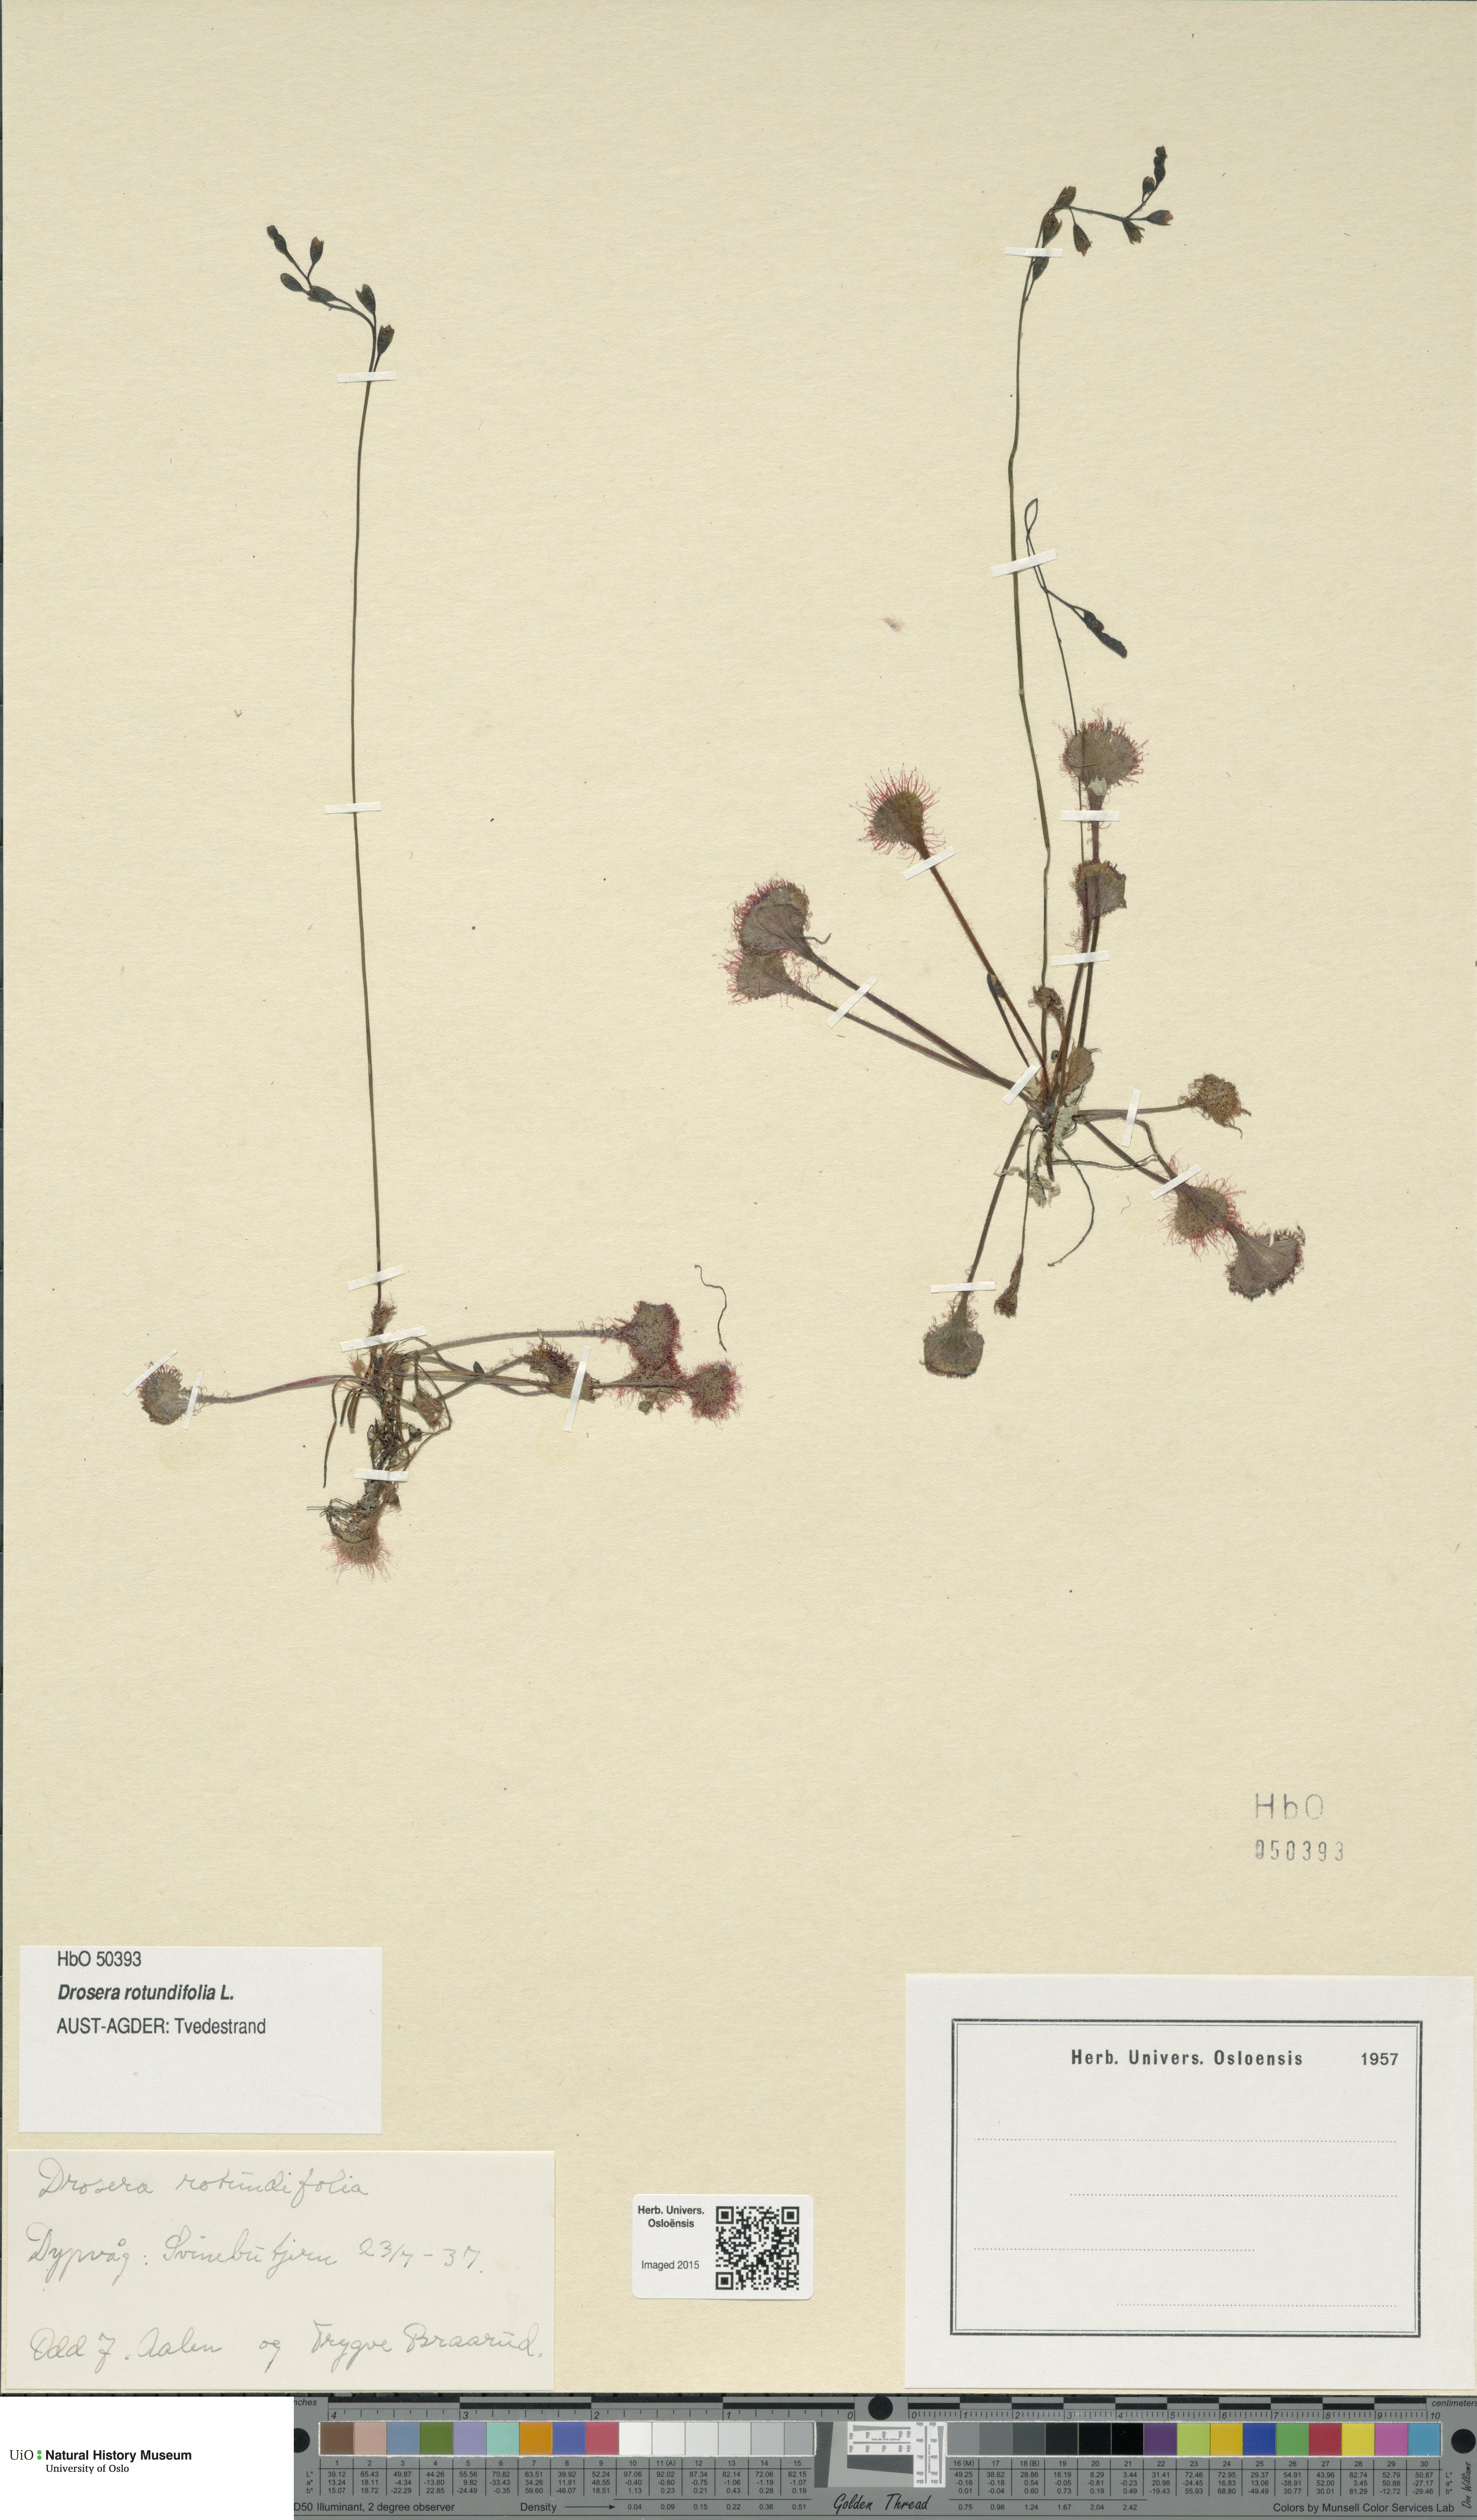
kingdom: Plantae
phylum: Tracheophyta
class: Magnoliopsida
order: Caryophyllales
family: Droseraceae
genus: Drosera
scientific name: Drosera rotundifolia
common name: Round-leaved sundew
